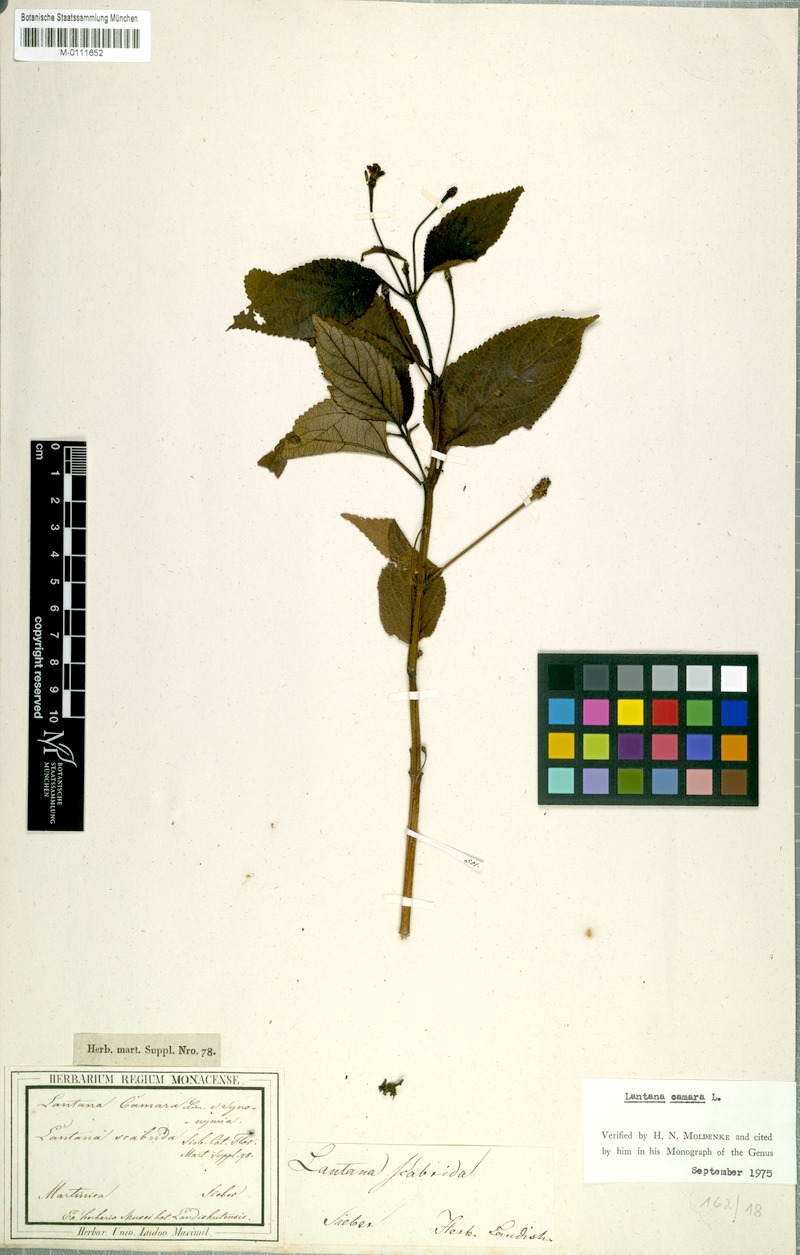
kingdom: Plantae
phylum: Tracheophyta
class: Magnoliopsida
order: Lamiales
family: Verbenaceae
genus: Lantana
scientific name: Lantana scabrida
